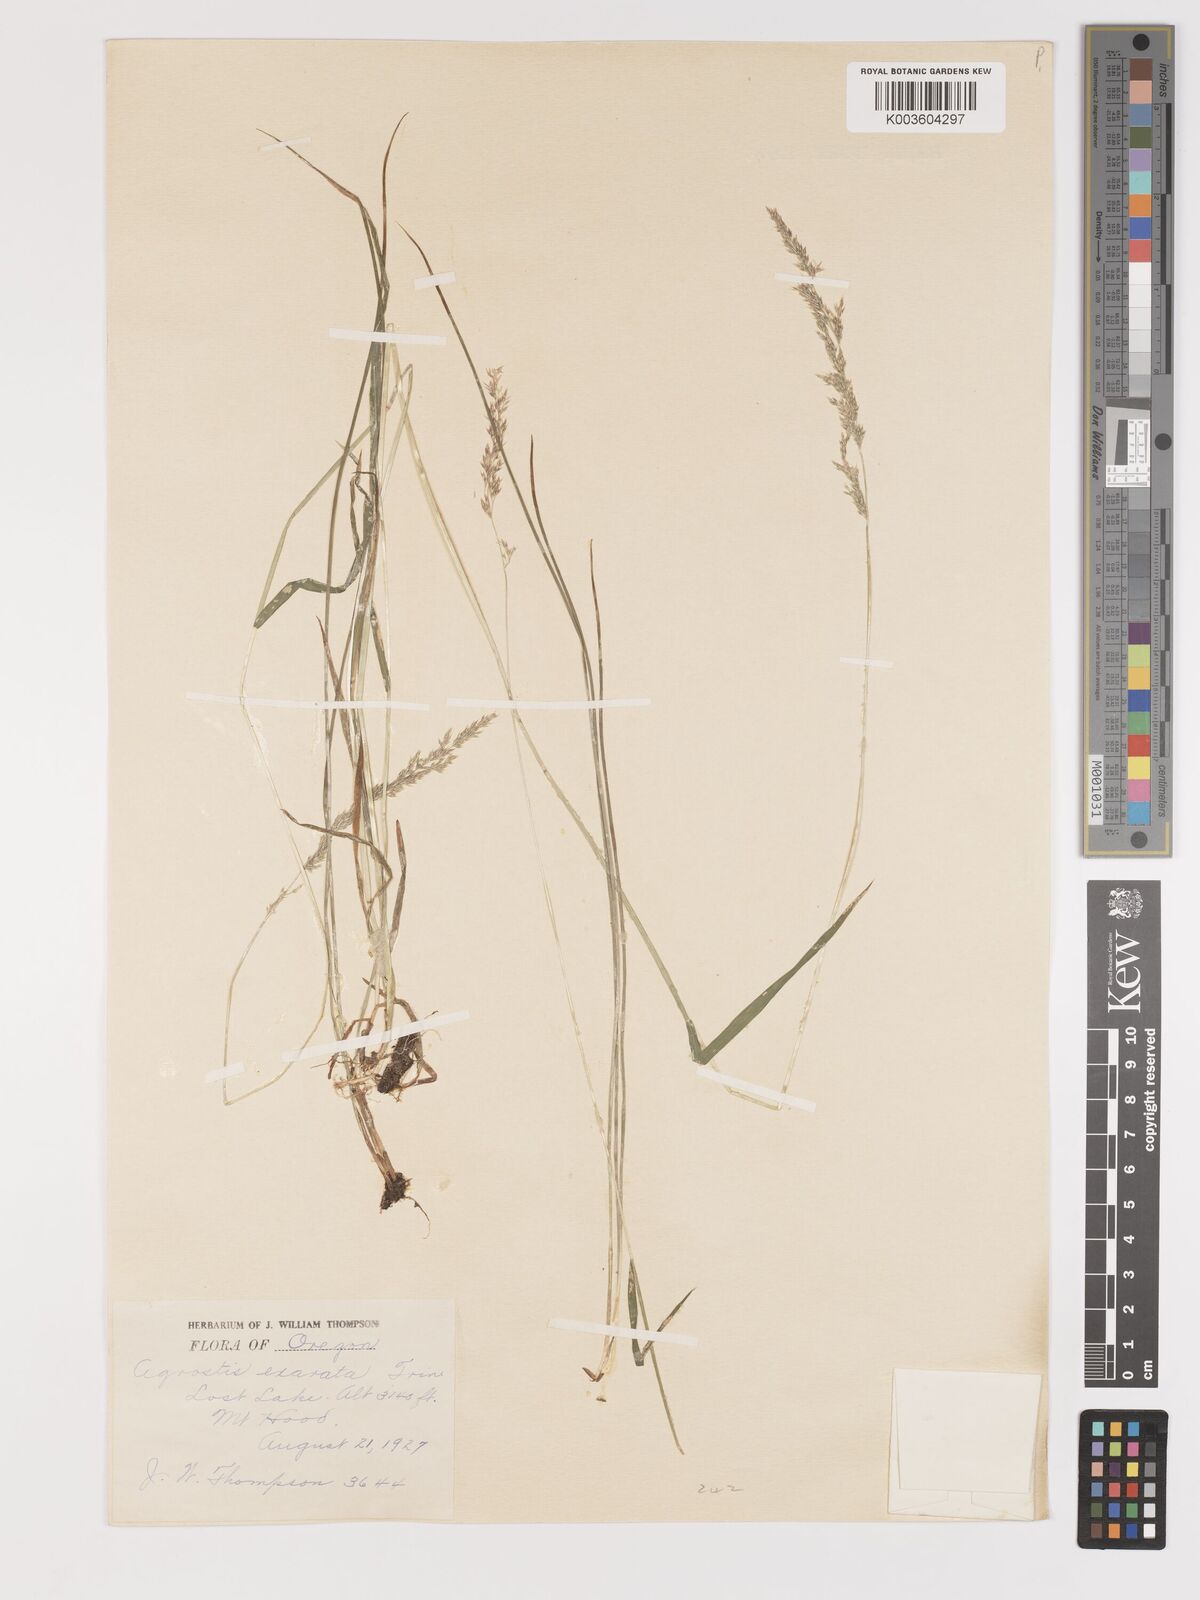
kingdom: Plantae
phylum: Tracheophyta
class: Liliopsida
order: Poales
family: Poaceae
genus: Agrostis
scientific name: Agrostis exarata
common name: Spike bent
